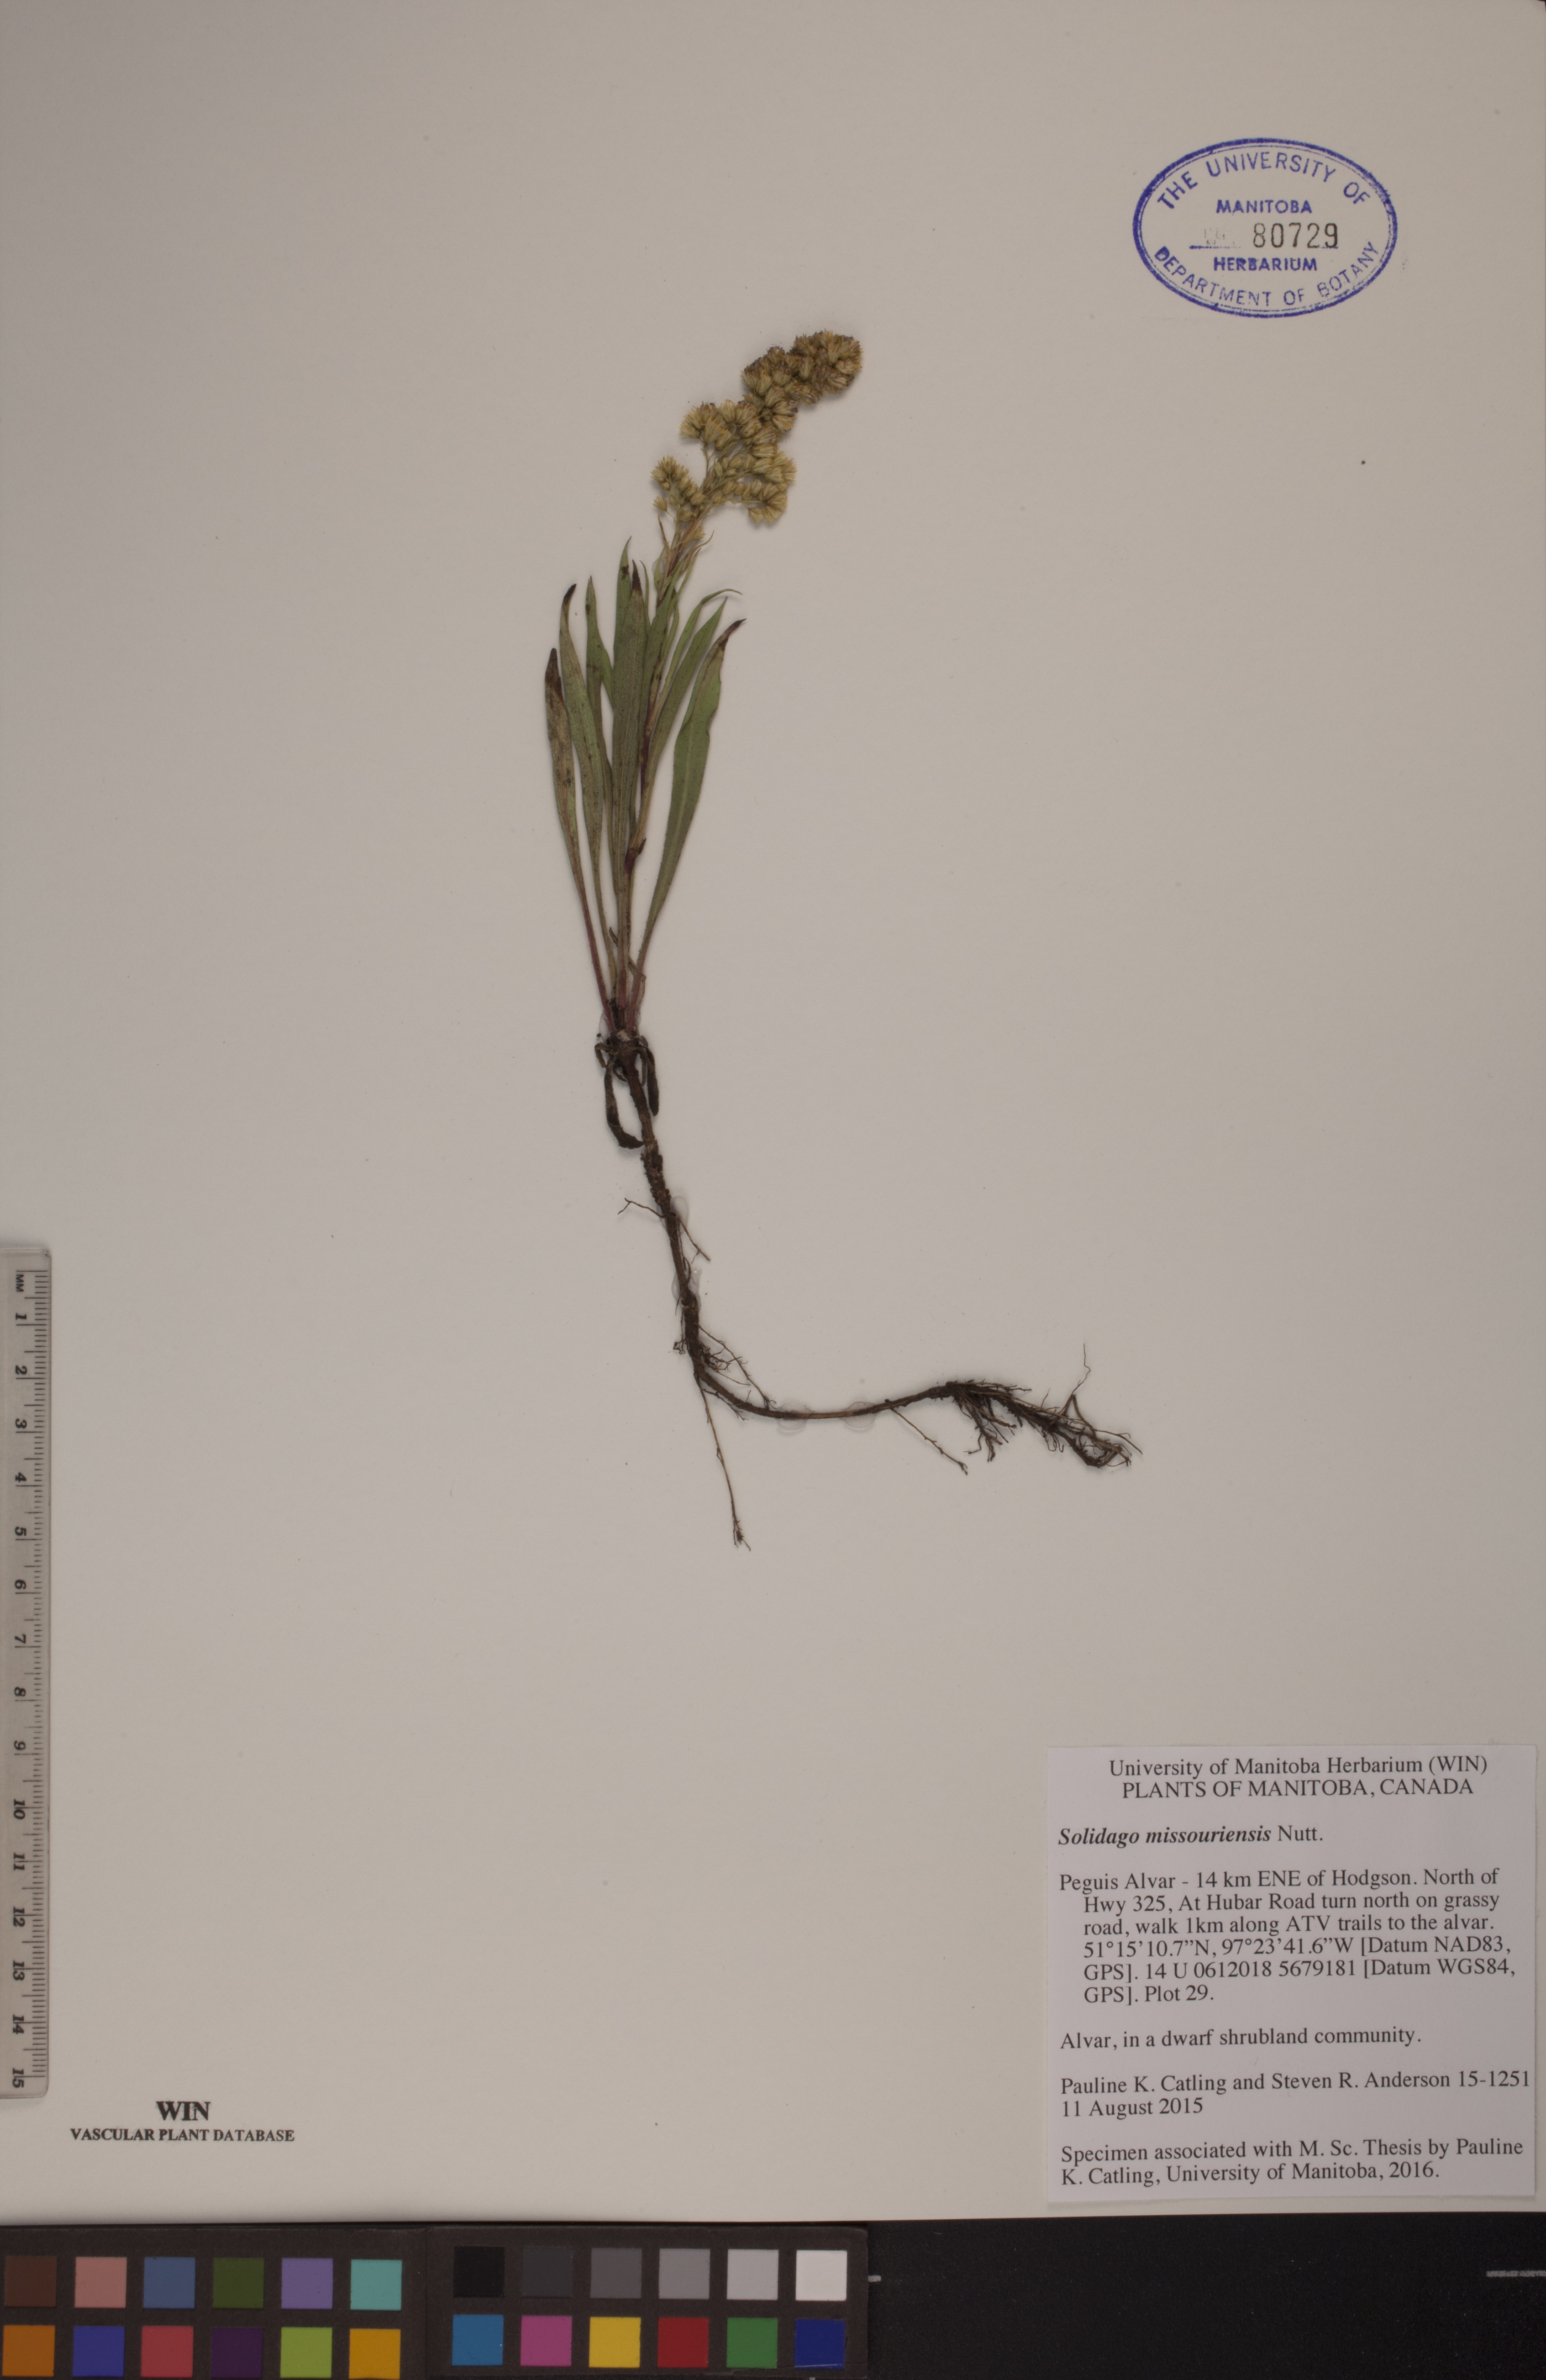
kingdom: Plantae
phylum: Tracheophyta
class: Magnoliopsida
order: Asterales
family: Asteraceae
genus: Solidago
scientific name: Solidago missouriensis
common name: Prairie goldenrod
